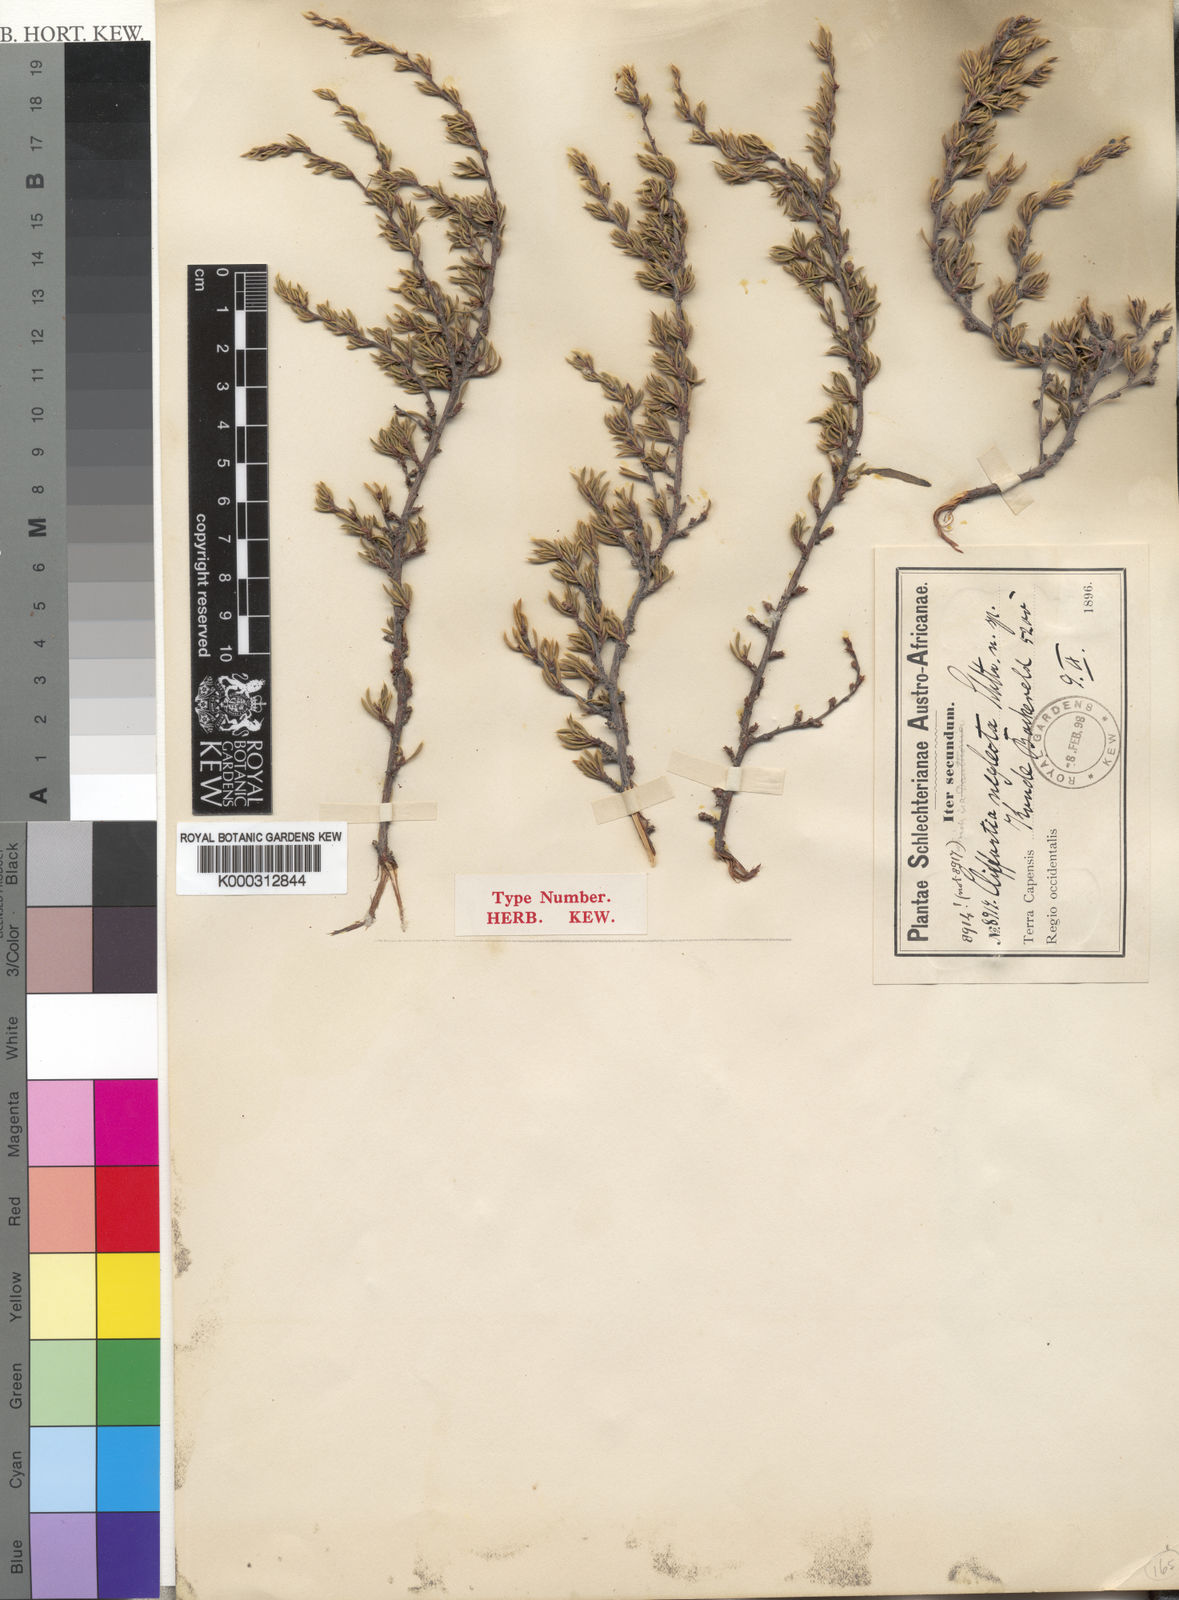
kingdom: Plantae
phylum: Tracheophyta
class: Magnoliopsida
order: Rosales
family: Rosaceae
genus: Cliffortia
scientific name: Cliffortia neglecta
